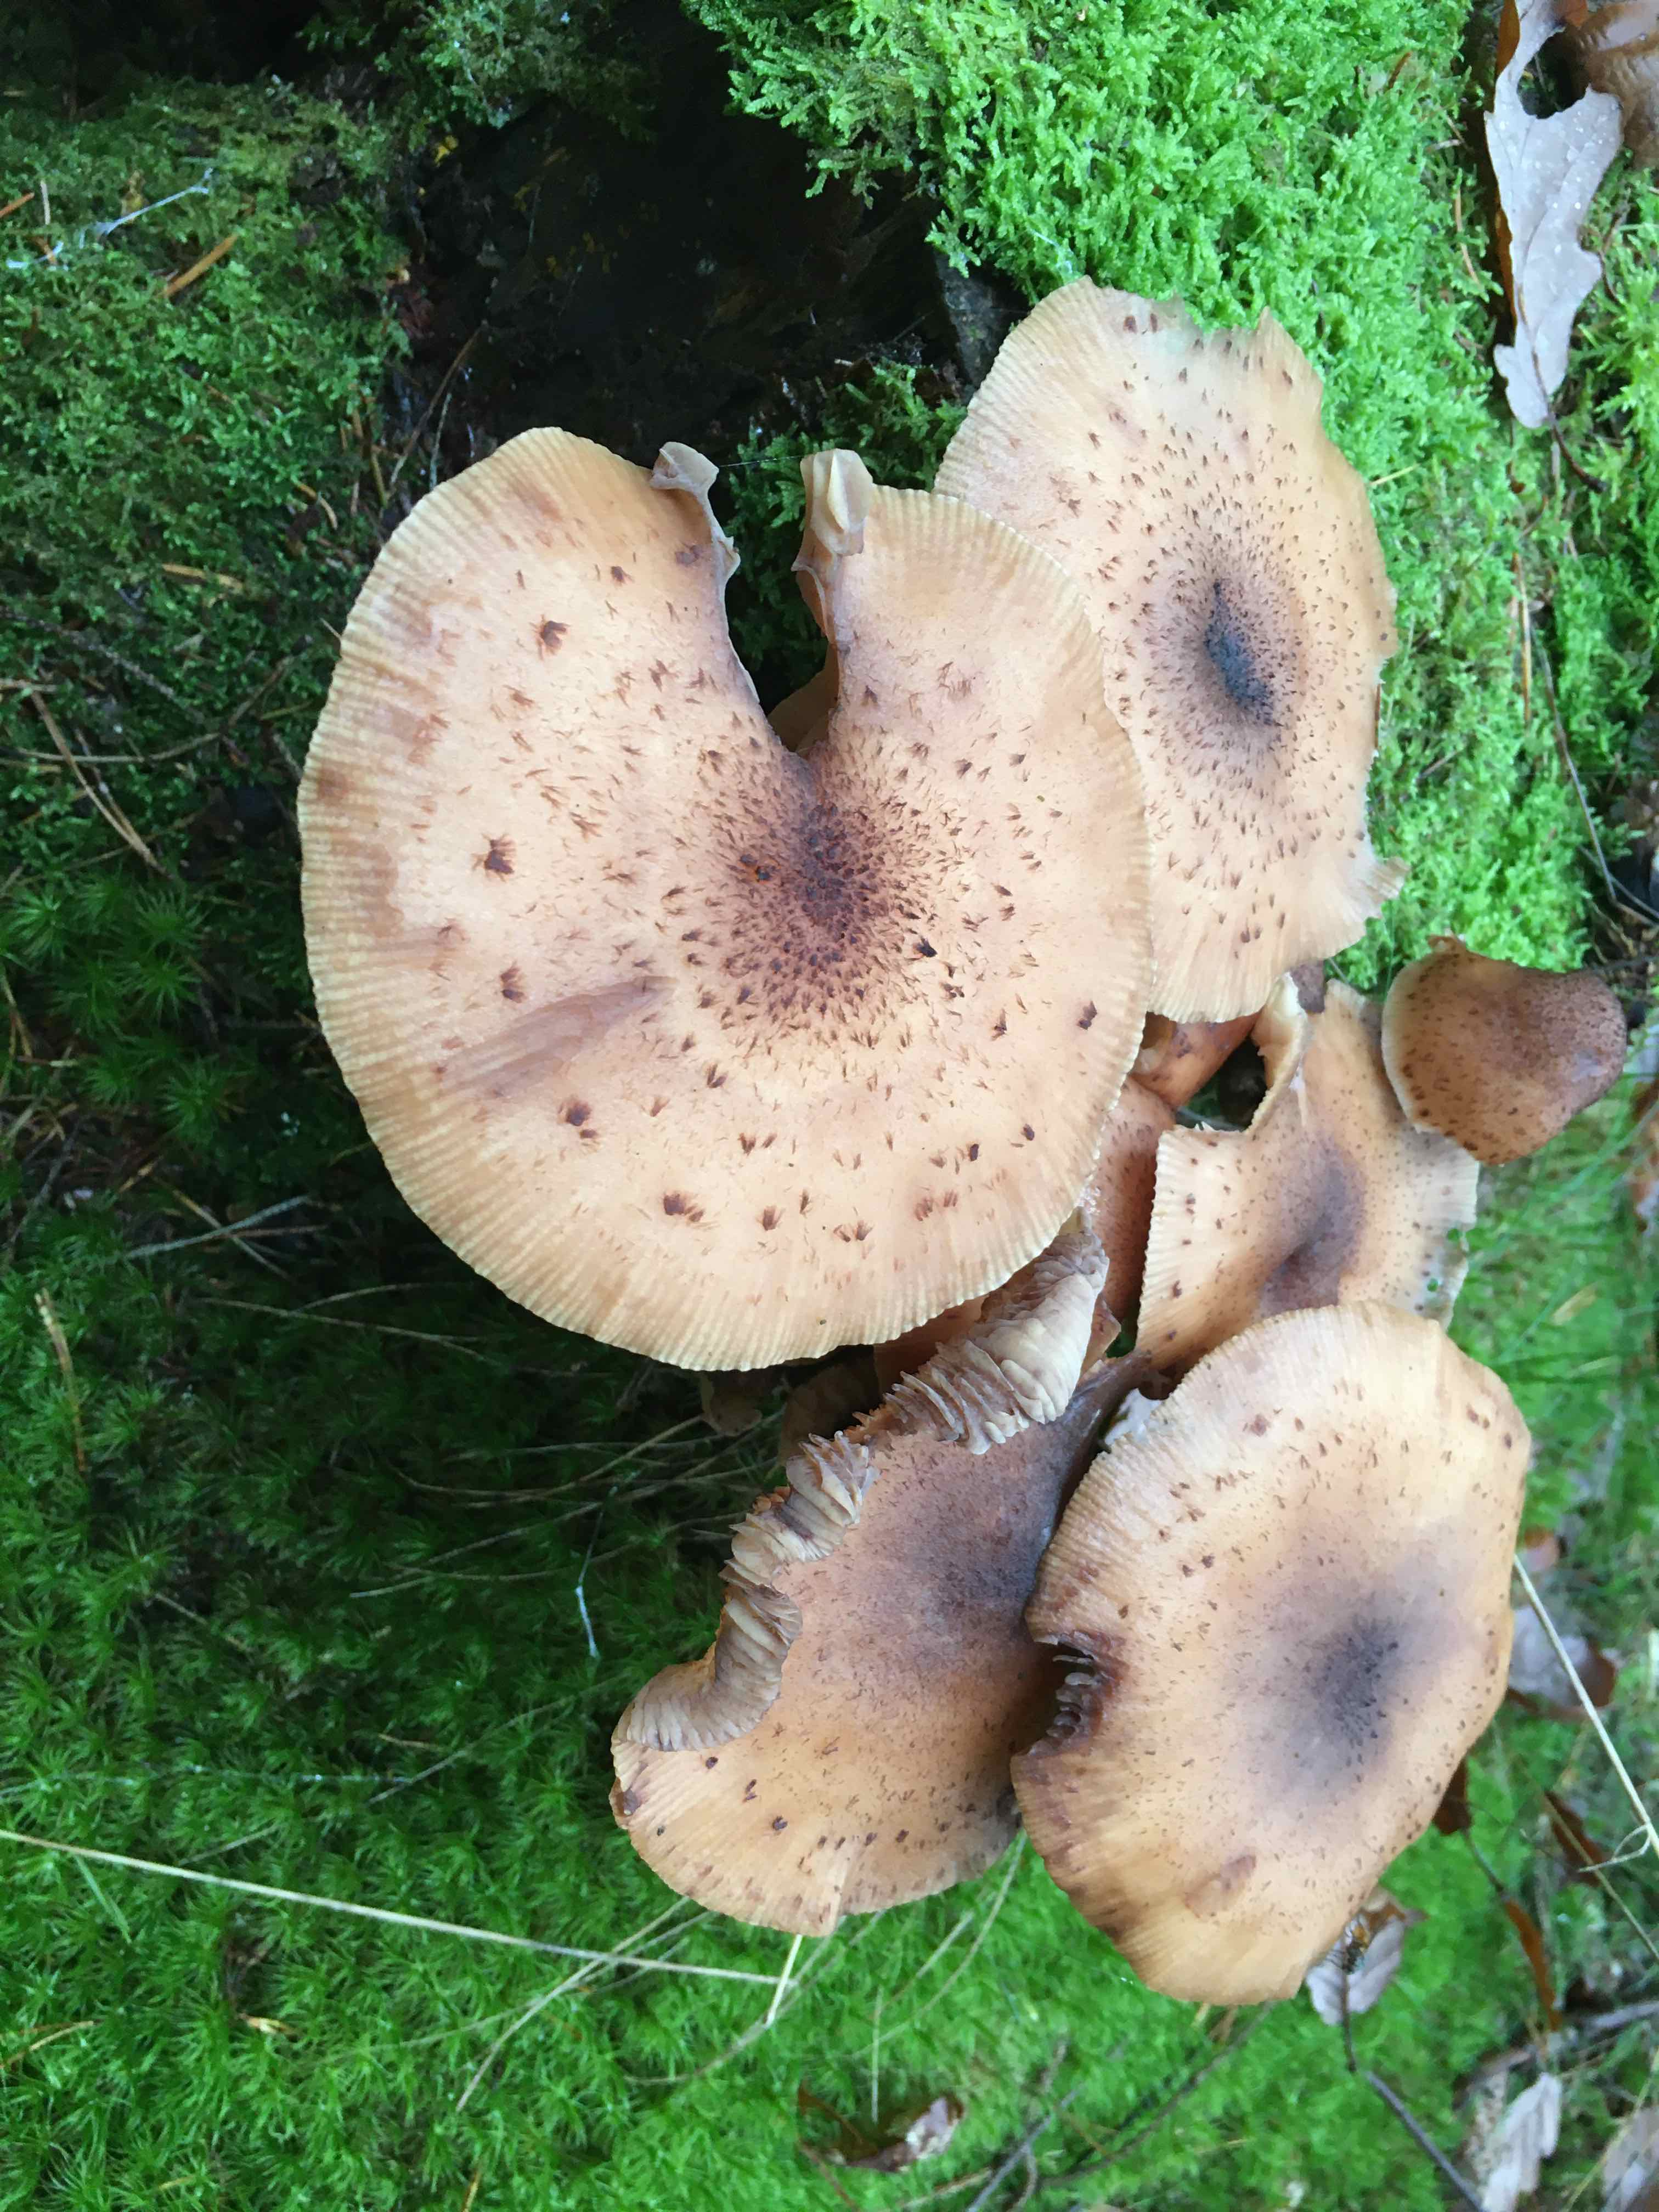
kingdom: Fungi
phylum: Basidiomycota
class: Agaricomycetes
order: Agaricales
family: Physalacriaceae
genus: Armillaria
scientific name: Armillaria
